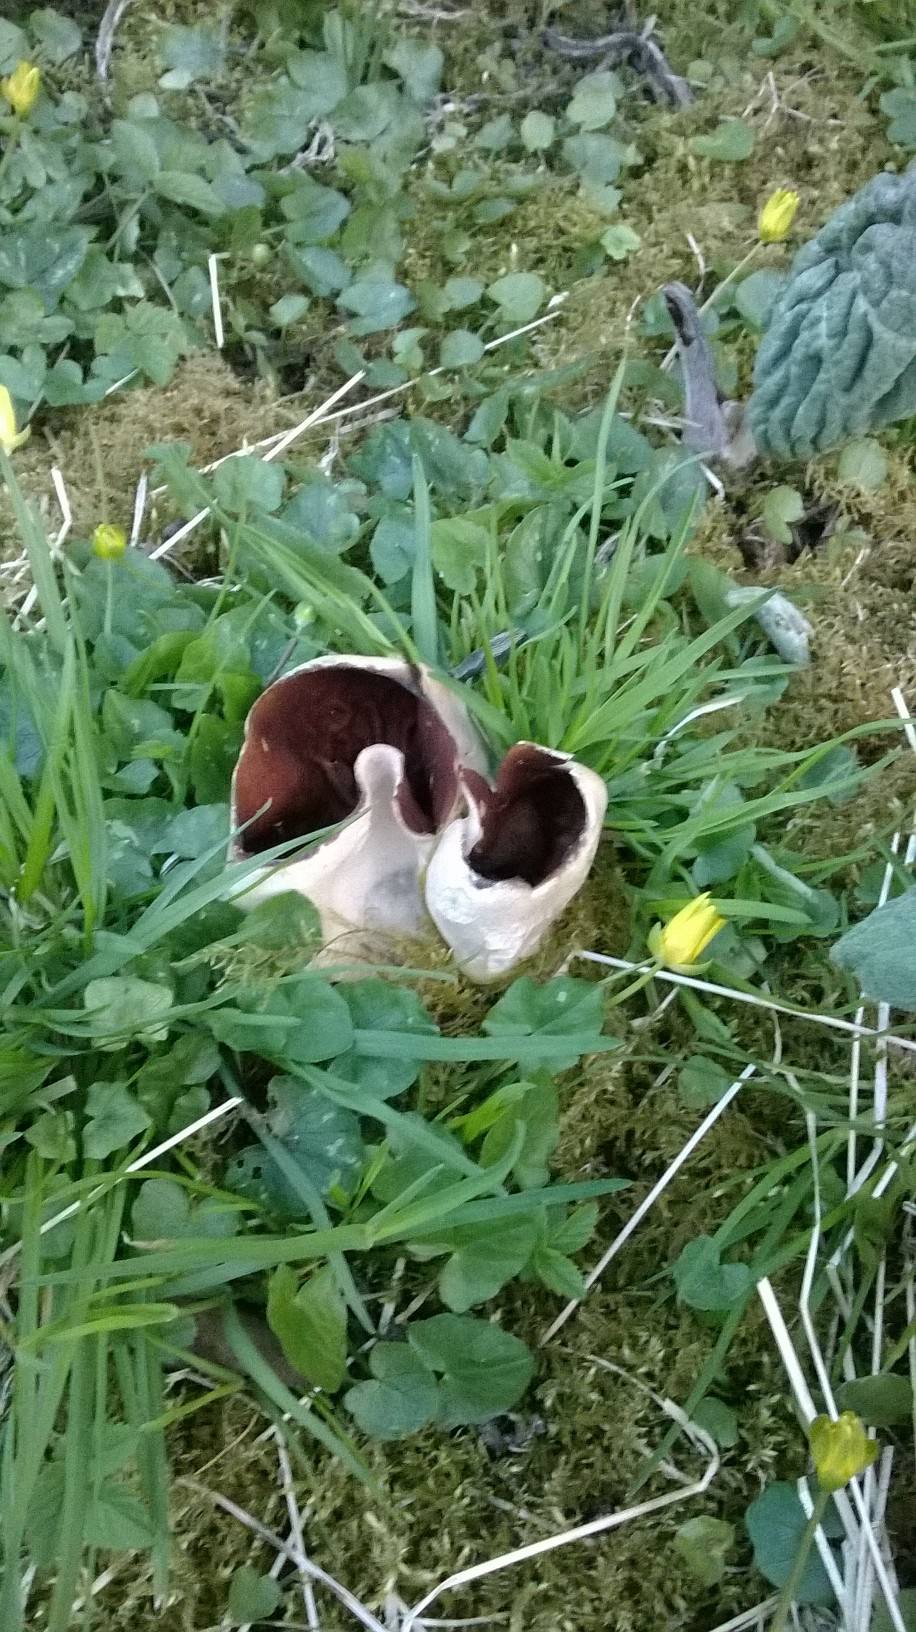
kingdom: Fungi
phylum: Ascomycota
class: Pezizomycetes
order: Pezizales
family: Morchellaceae
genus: Disciotis
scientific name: Disciotis venosa
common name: klor-bægermorkel
